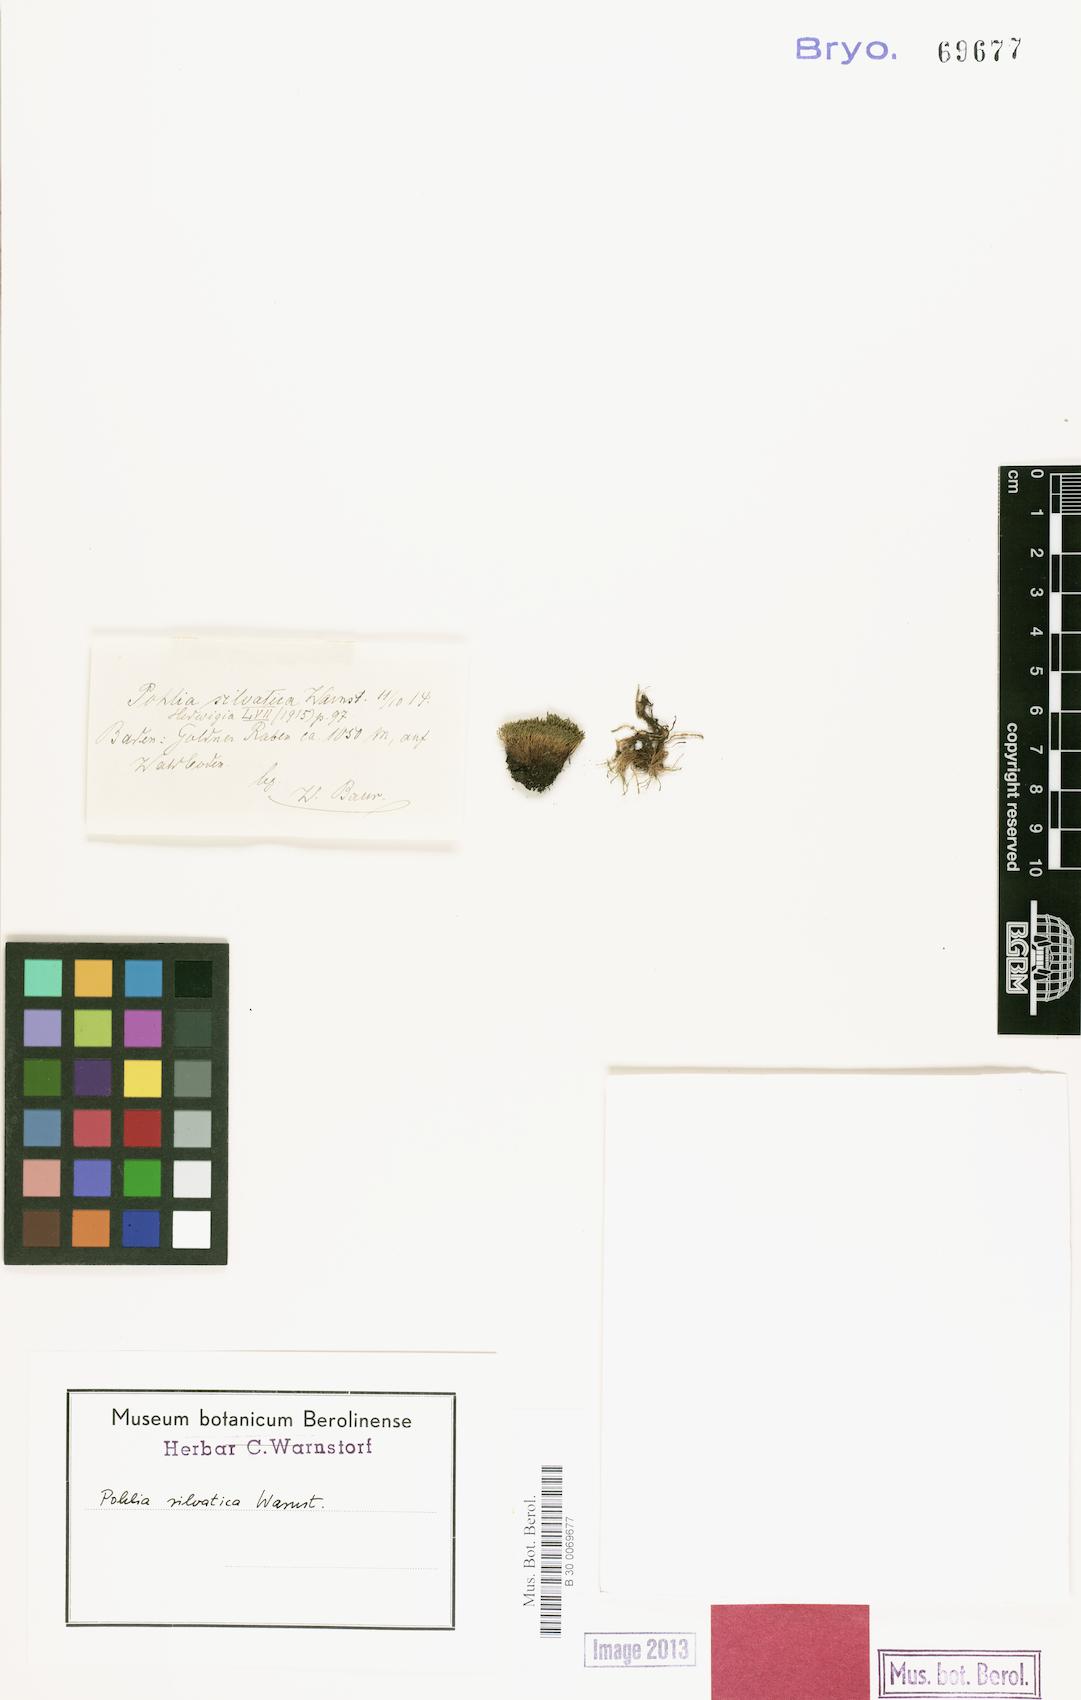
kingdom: Plantae
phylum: Bryophyta
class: Bryopsida
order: Bryales
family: Mniaceae
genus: Pohlia
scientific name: Pohlia silvatica
